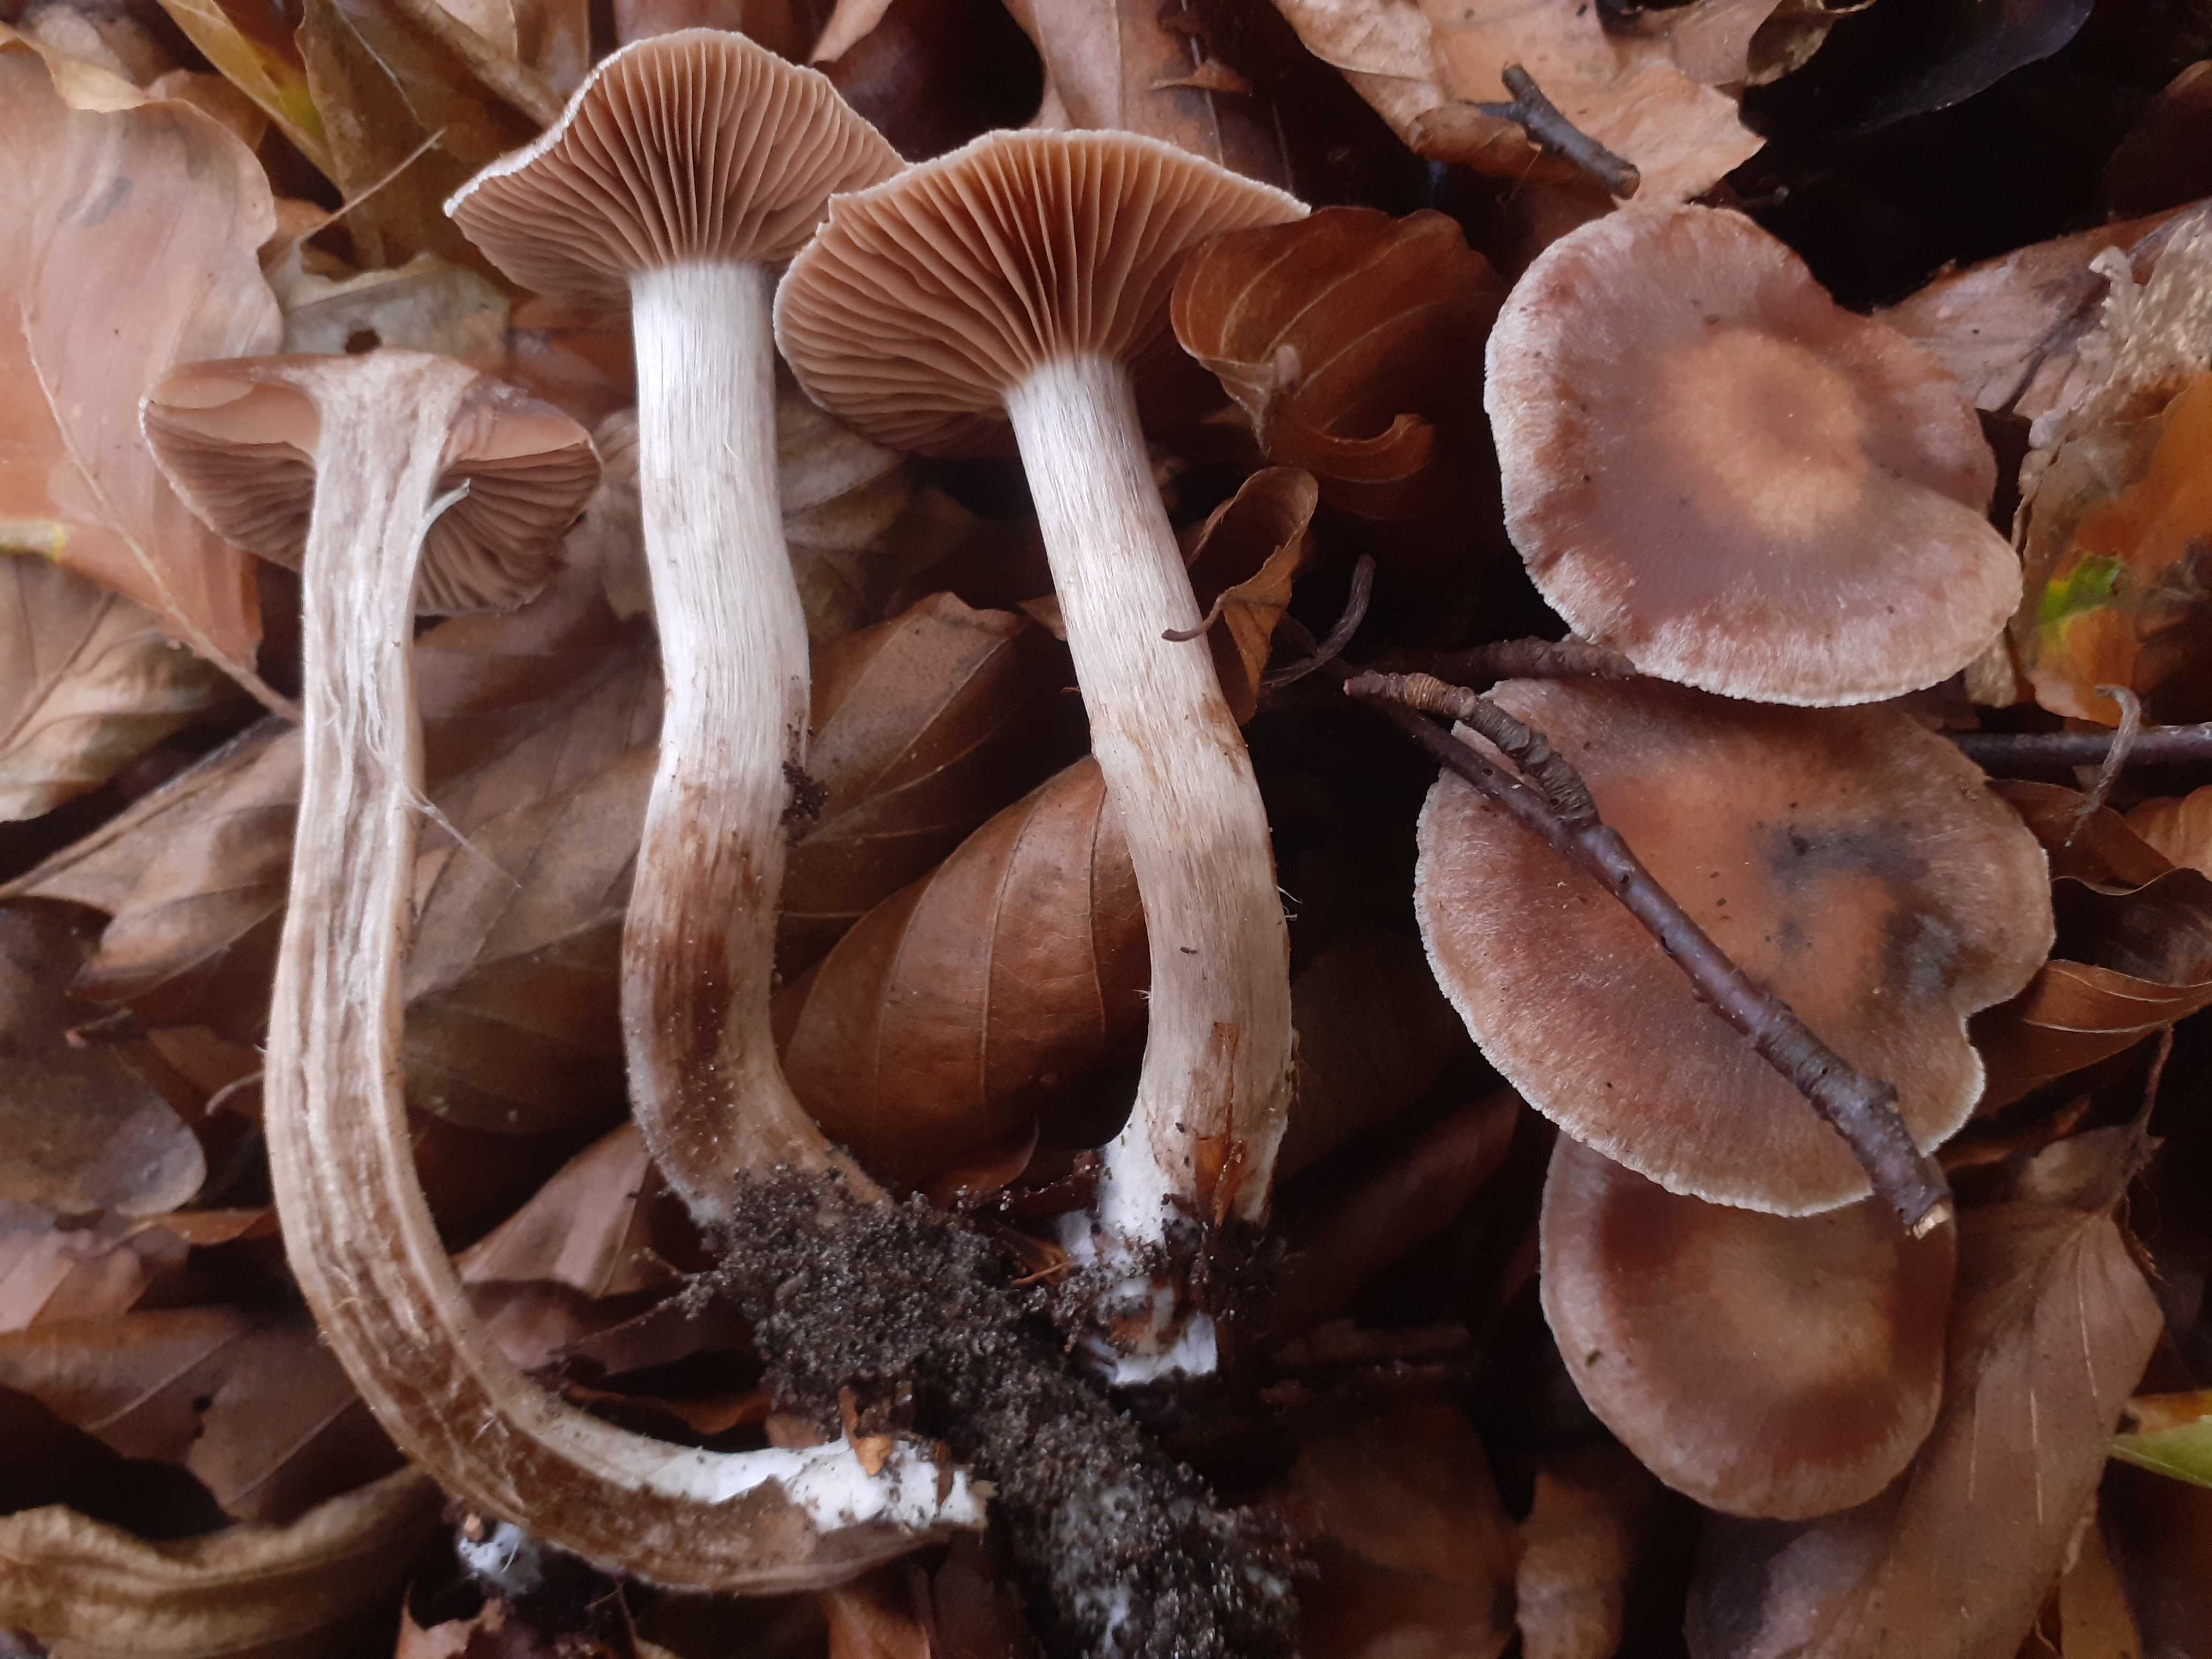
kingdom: Fungi
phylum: Basidiomycota
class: Agaricomycetes
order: Agaricales
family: Cortinariaceae
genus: Cortinarius
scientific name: Cortinarius ainsworthii
